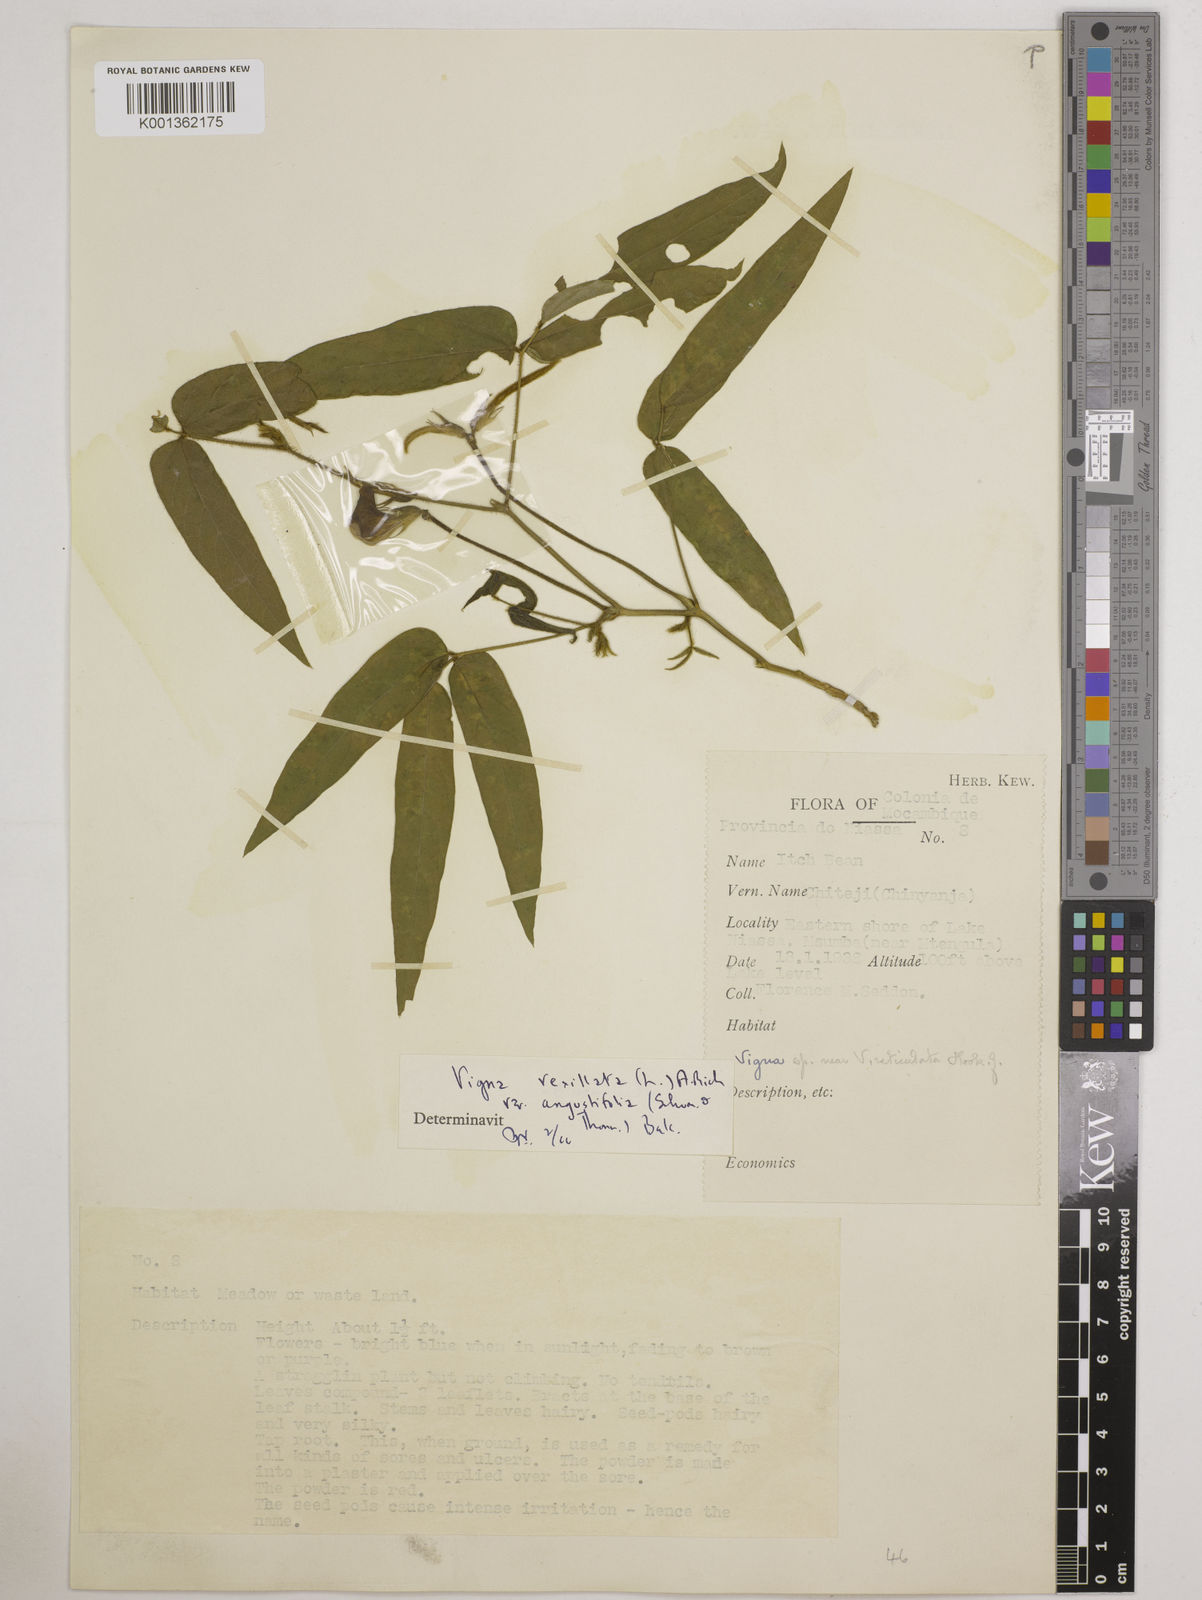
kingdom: Plantae
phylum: Tracheophyta
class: Magnoliopsida
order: Fabales
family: Fabaceae
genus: Vigna
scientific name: Vigna vexillata
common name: Zombi pea
